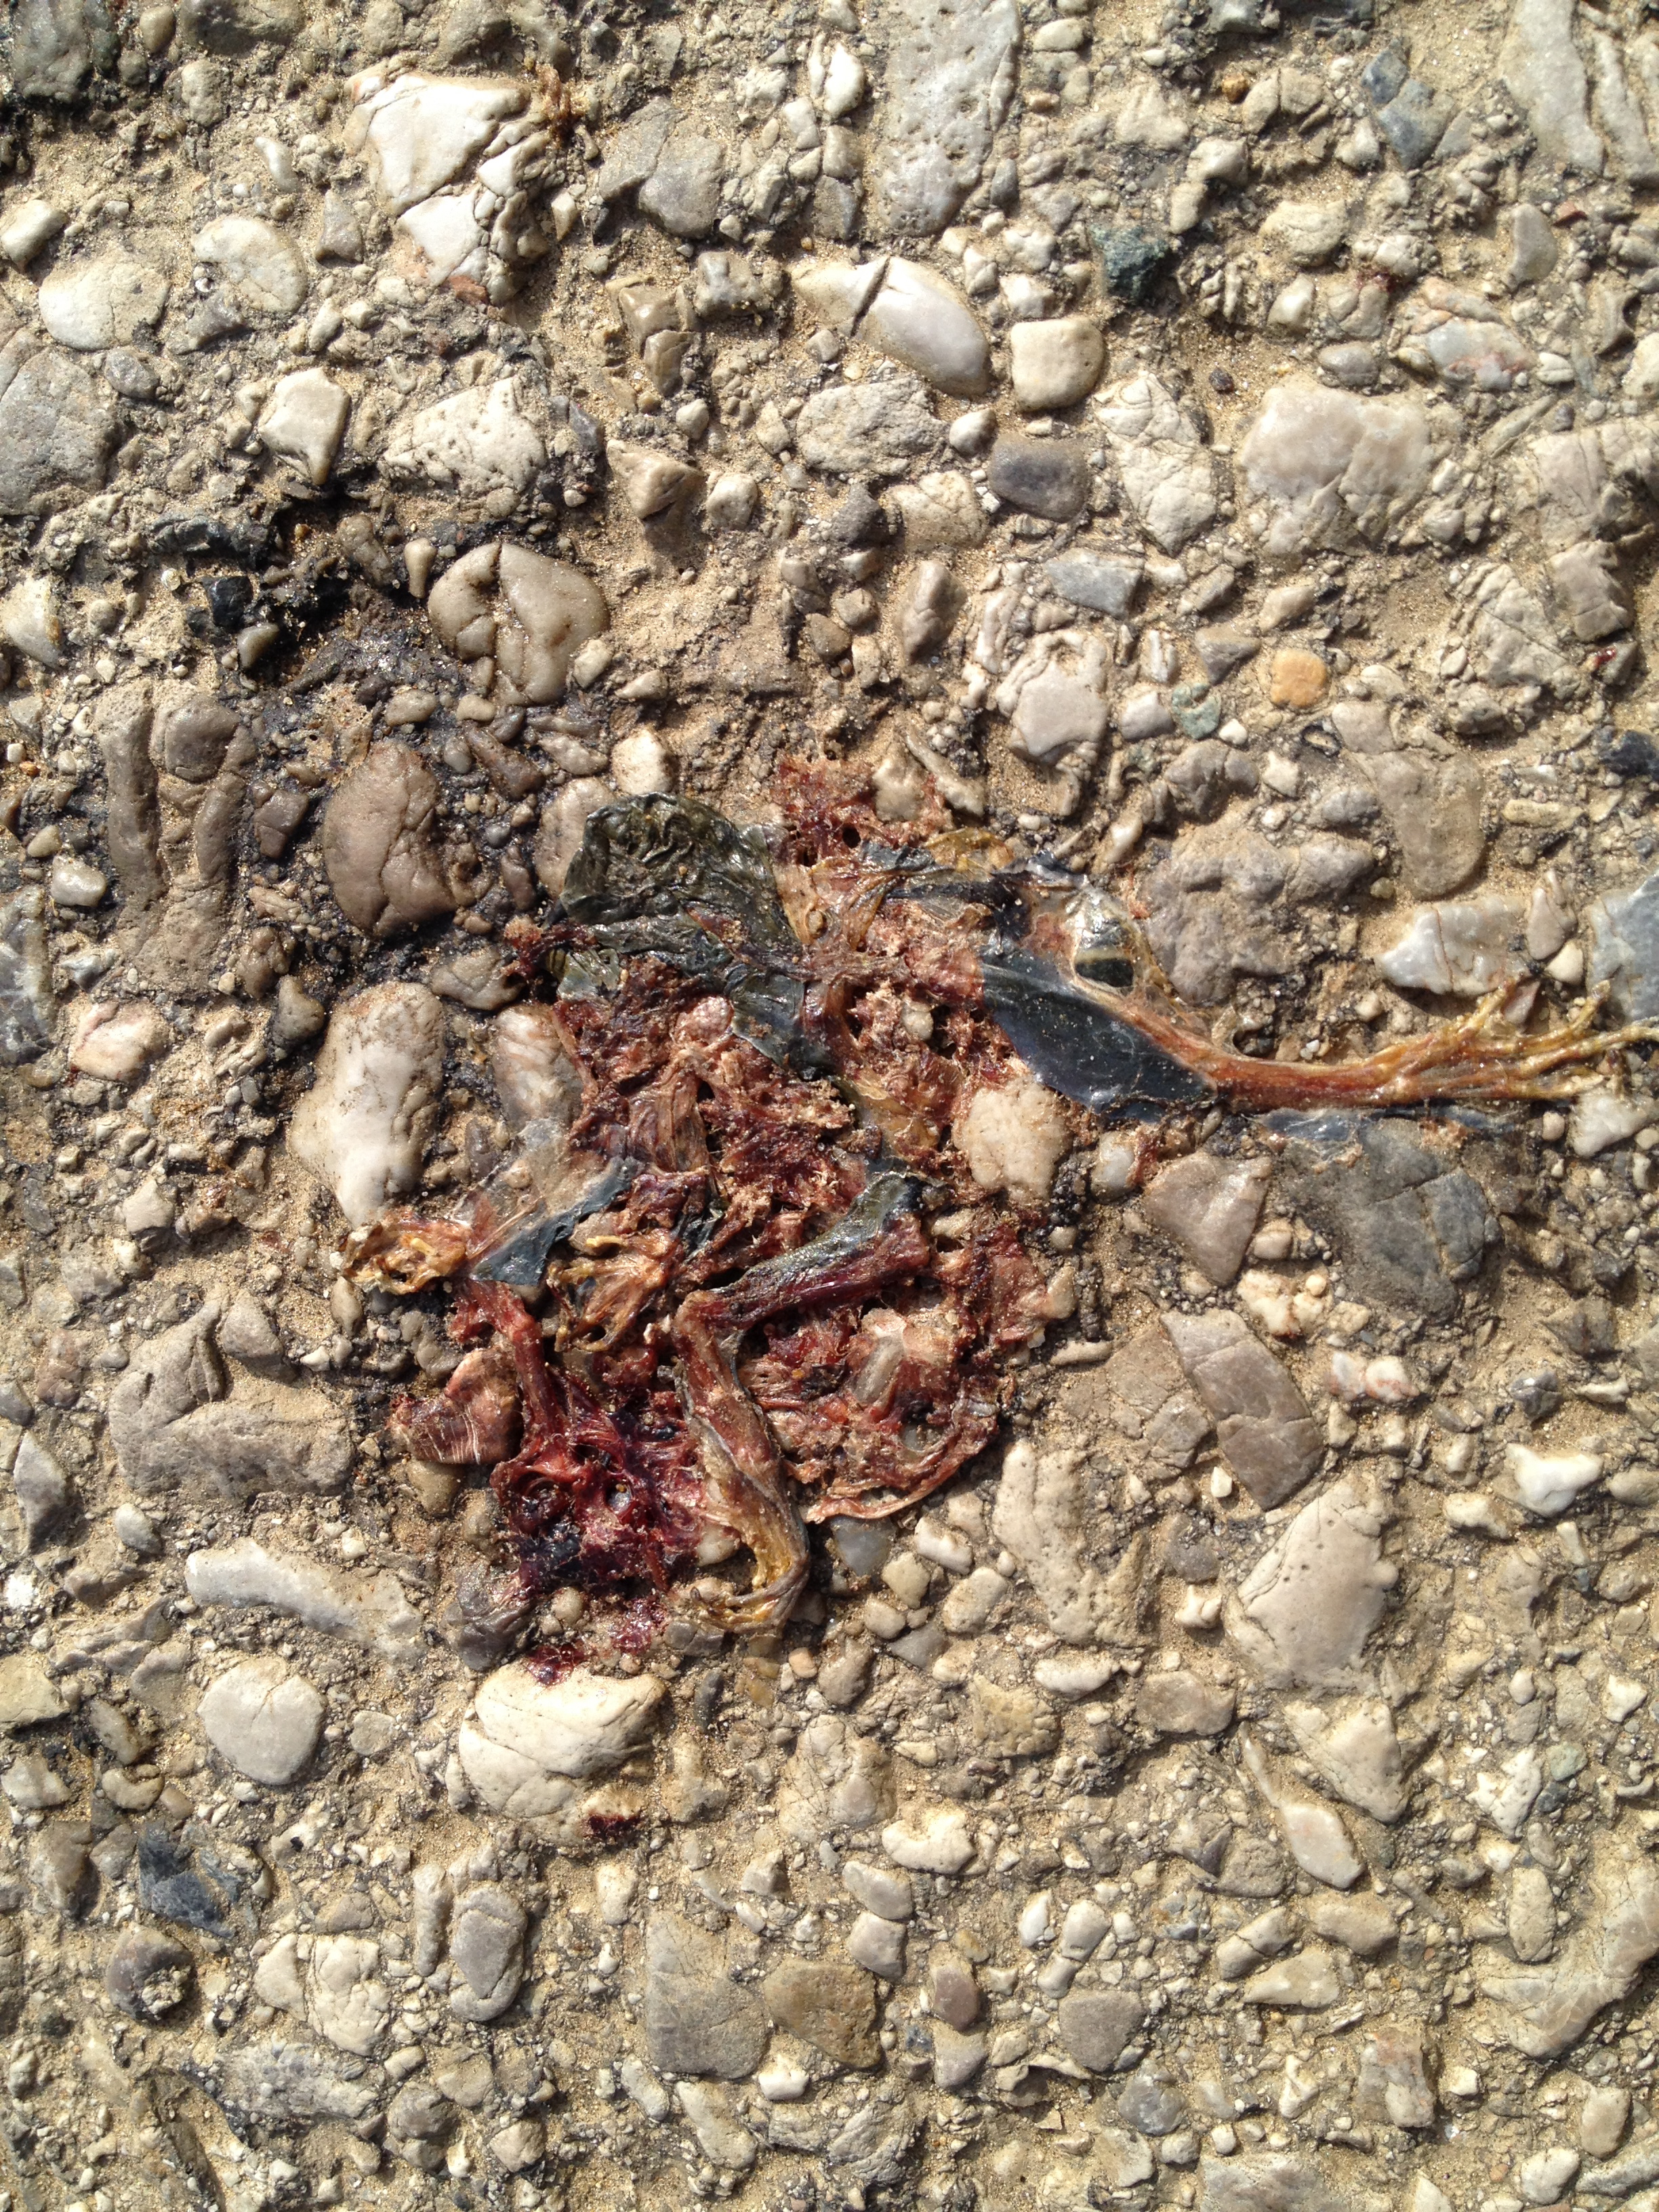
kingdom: Animalia
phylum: Chordata
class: Amphibia
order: Anura
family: Ranidae
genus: Rana
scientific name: Rana dalmatina
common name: Agile frog
